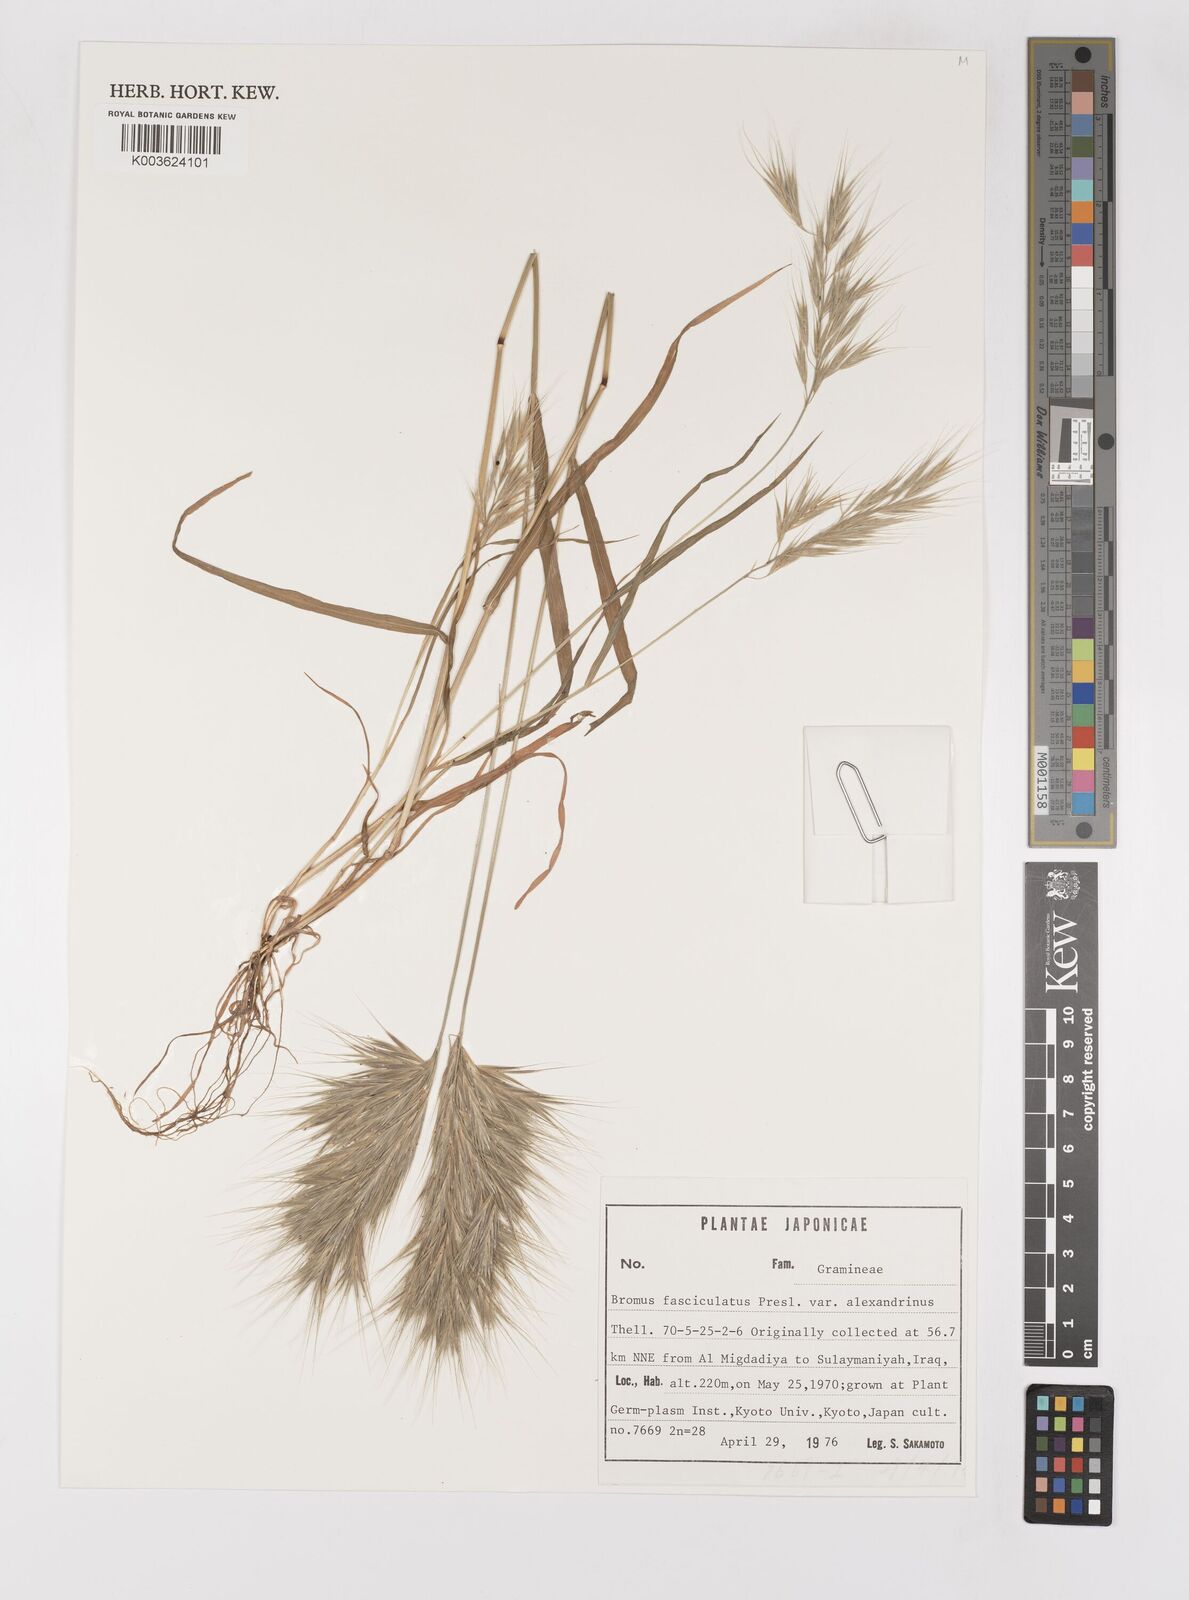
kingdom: Plantae
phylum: Tracheophyta
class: Liliopsida
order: Poales
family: Poaceae
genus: Bromus
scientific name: Bromus fasciculatus
